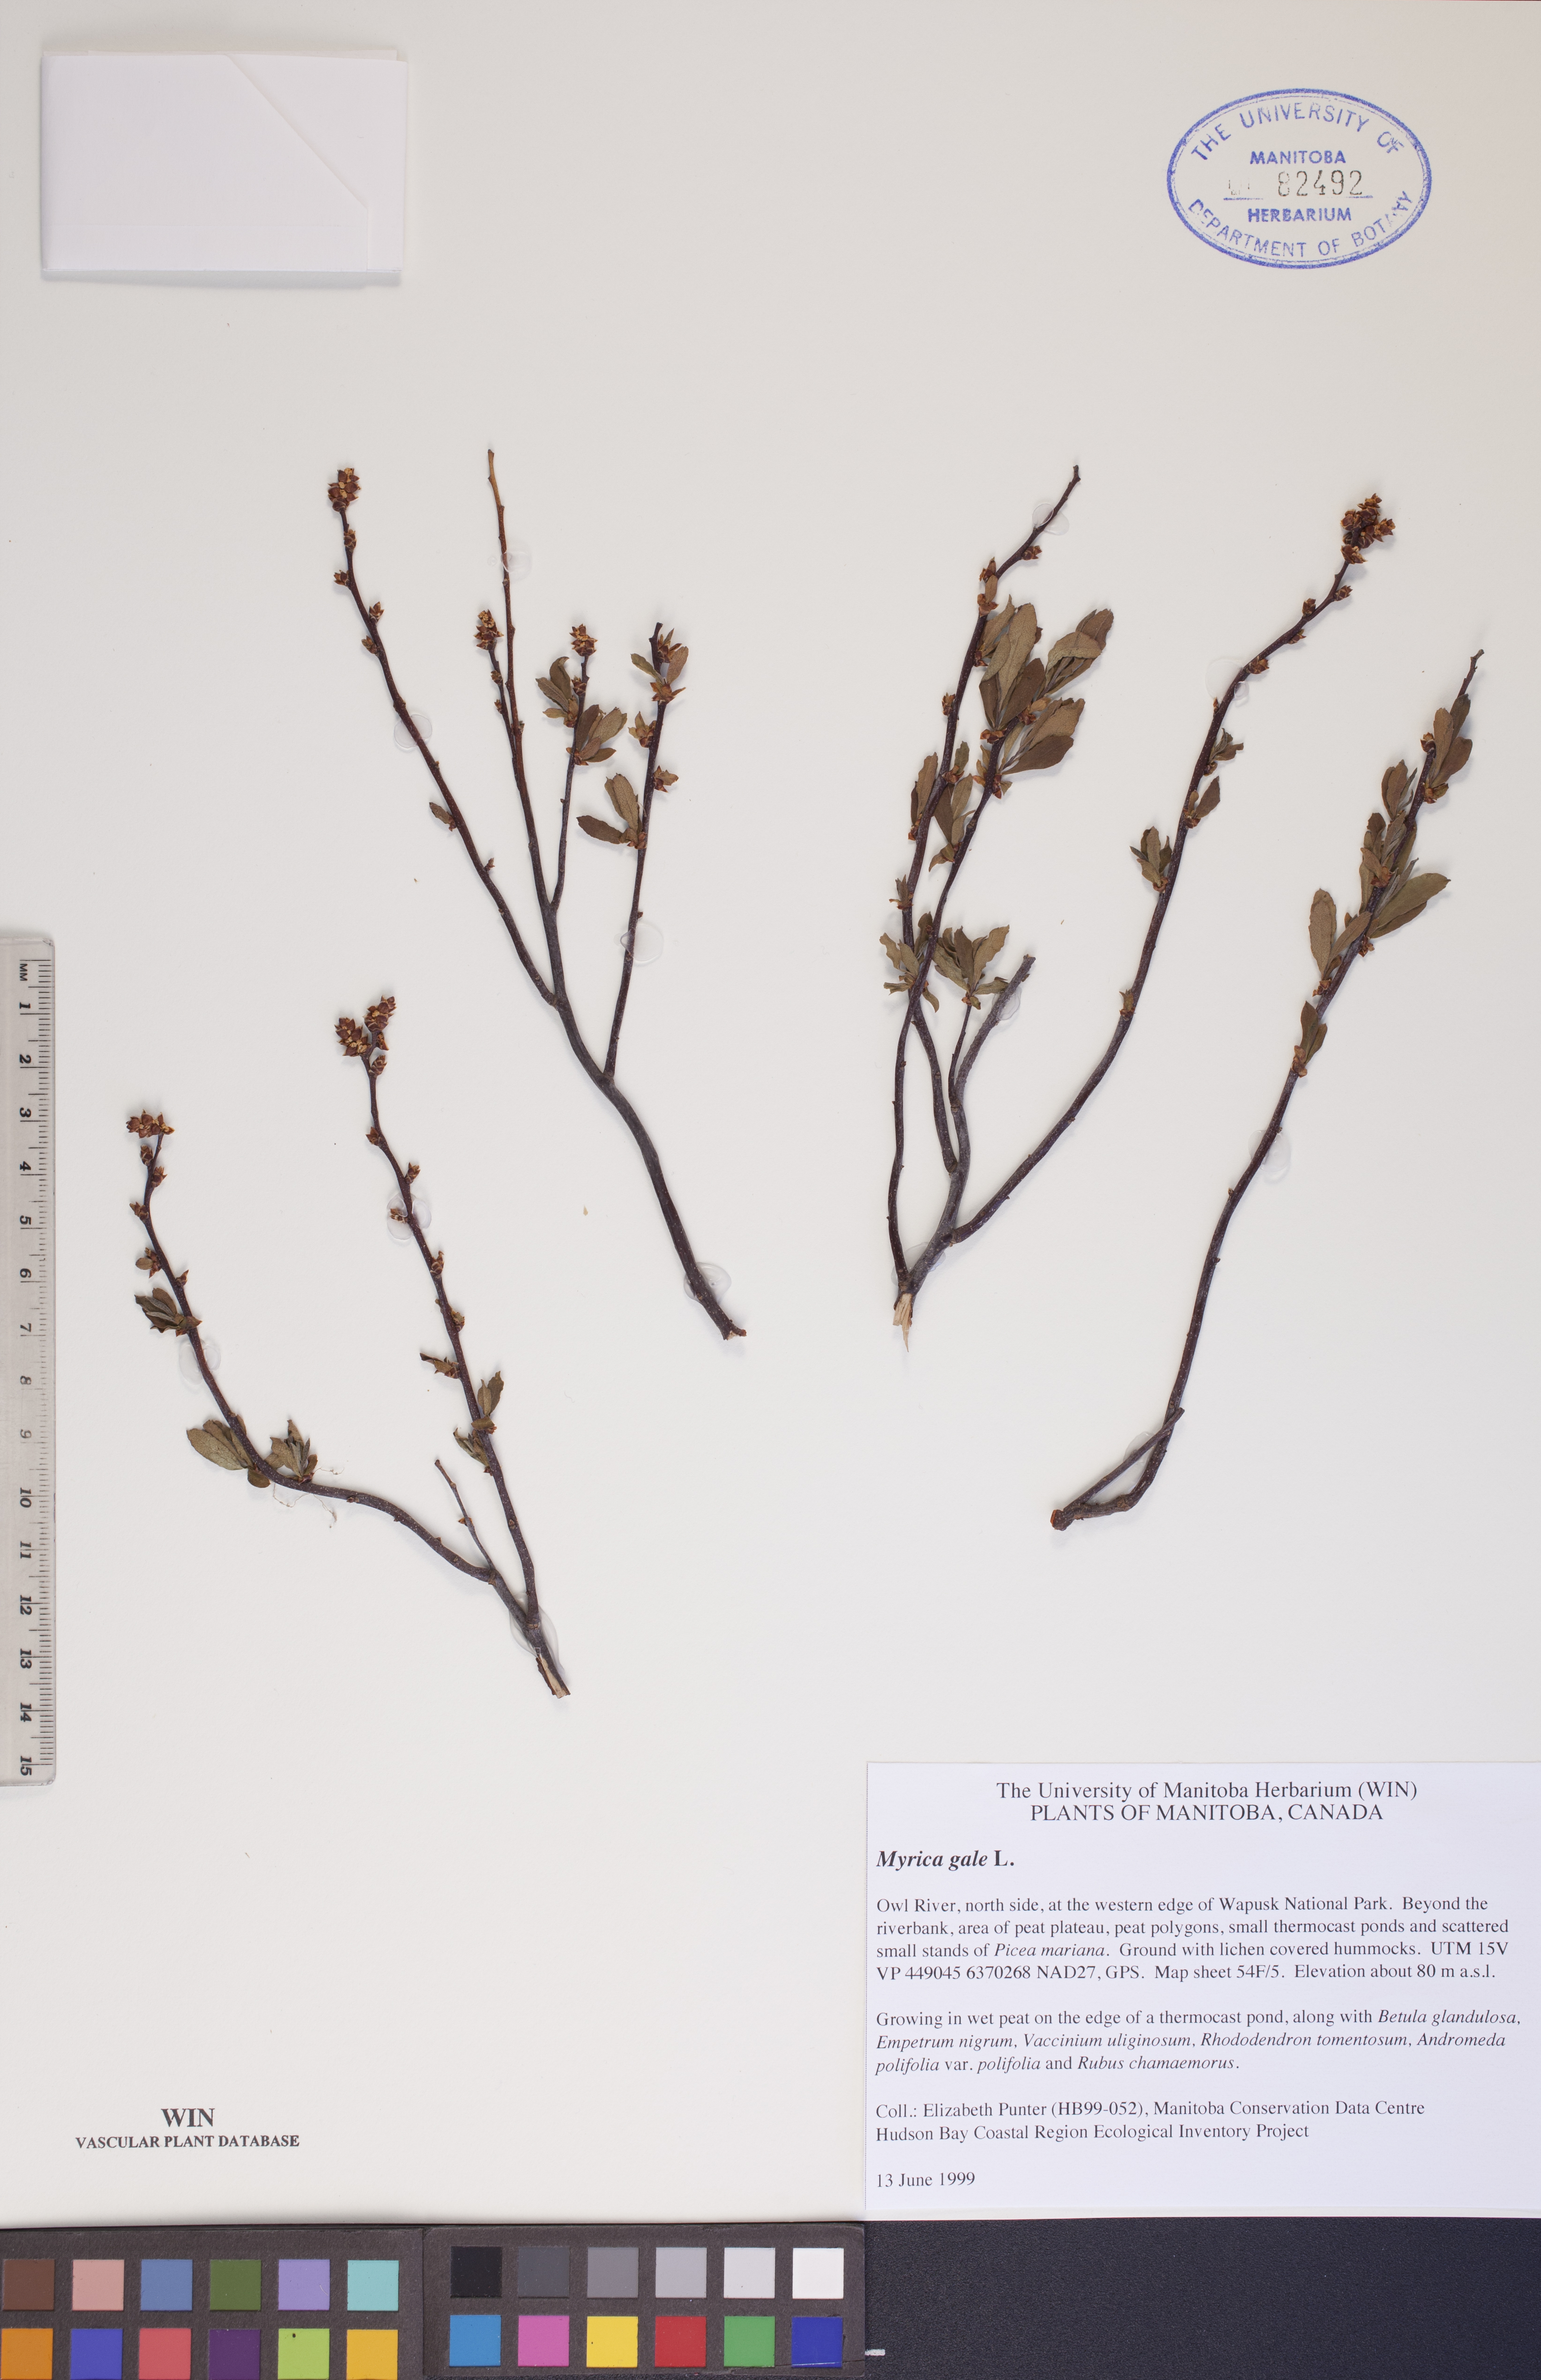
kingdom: Plantae
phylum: Tracheophyta
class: Magnoliopsida
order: Fagales
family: Myricaceae
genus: Myrica
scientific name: Myrica gale
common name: Sweet gale
